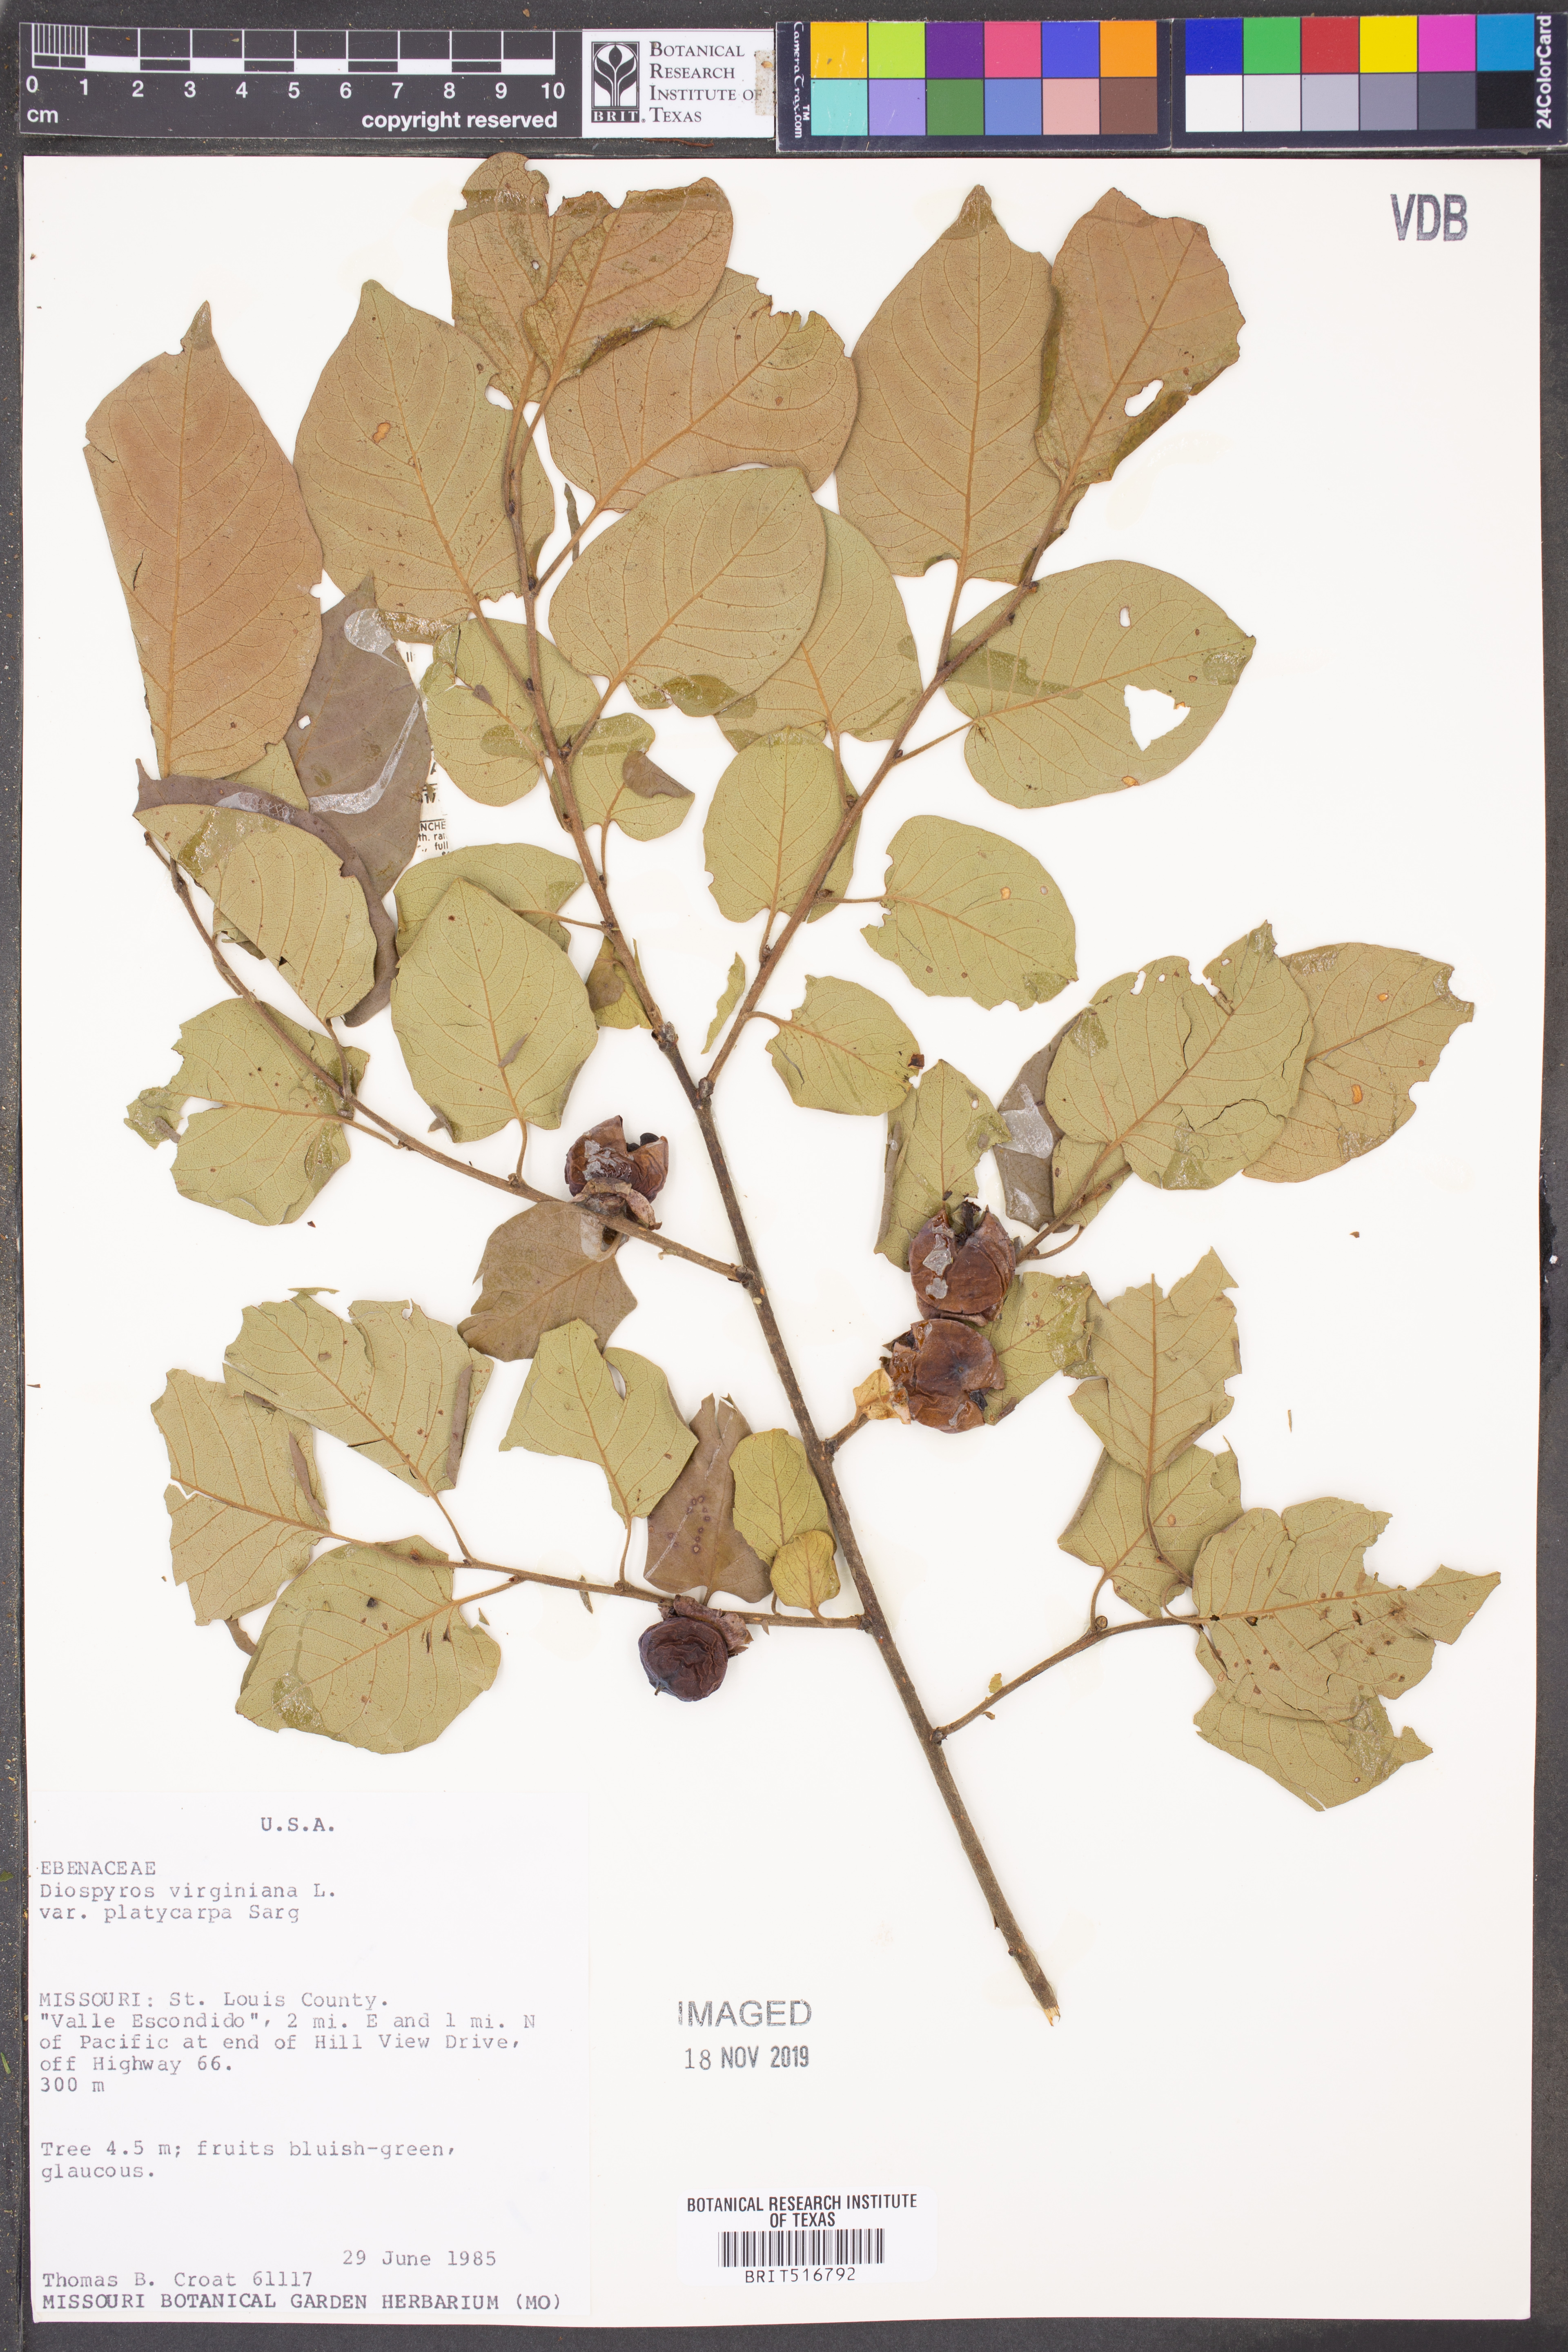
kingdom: Plantae
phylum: Tracheophyta
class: Magnoliopsida
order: Ericales
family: Ebenaceae
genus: Diospyros
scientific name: Diospyros virginiana
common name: Persimmon
